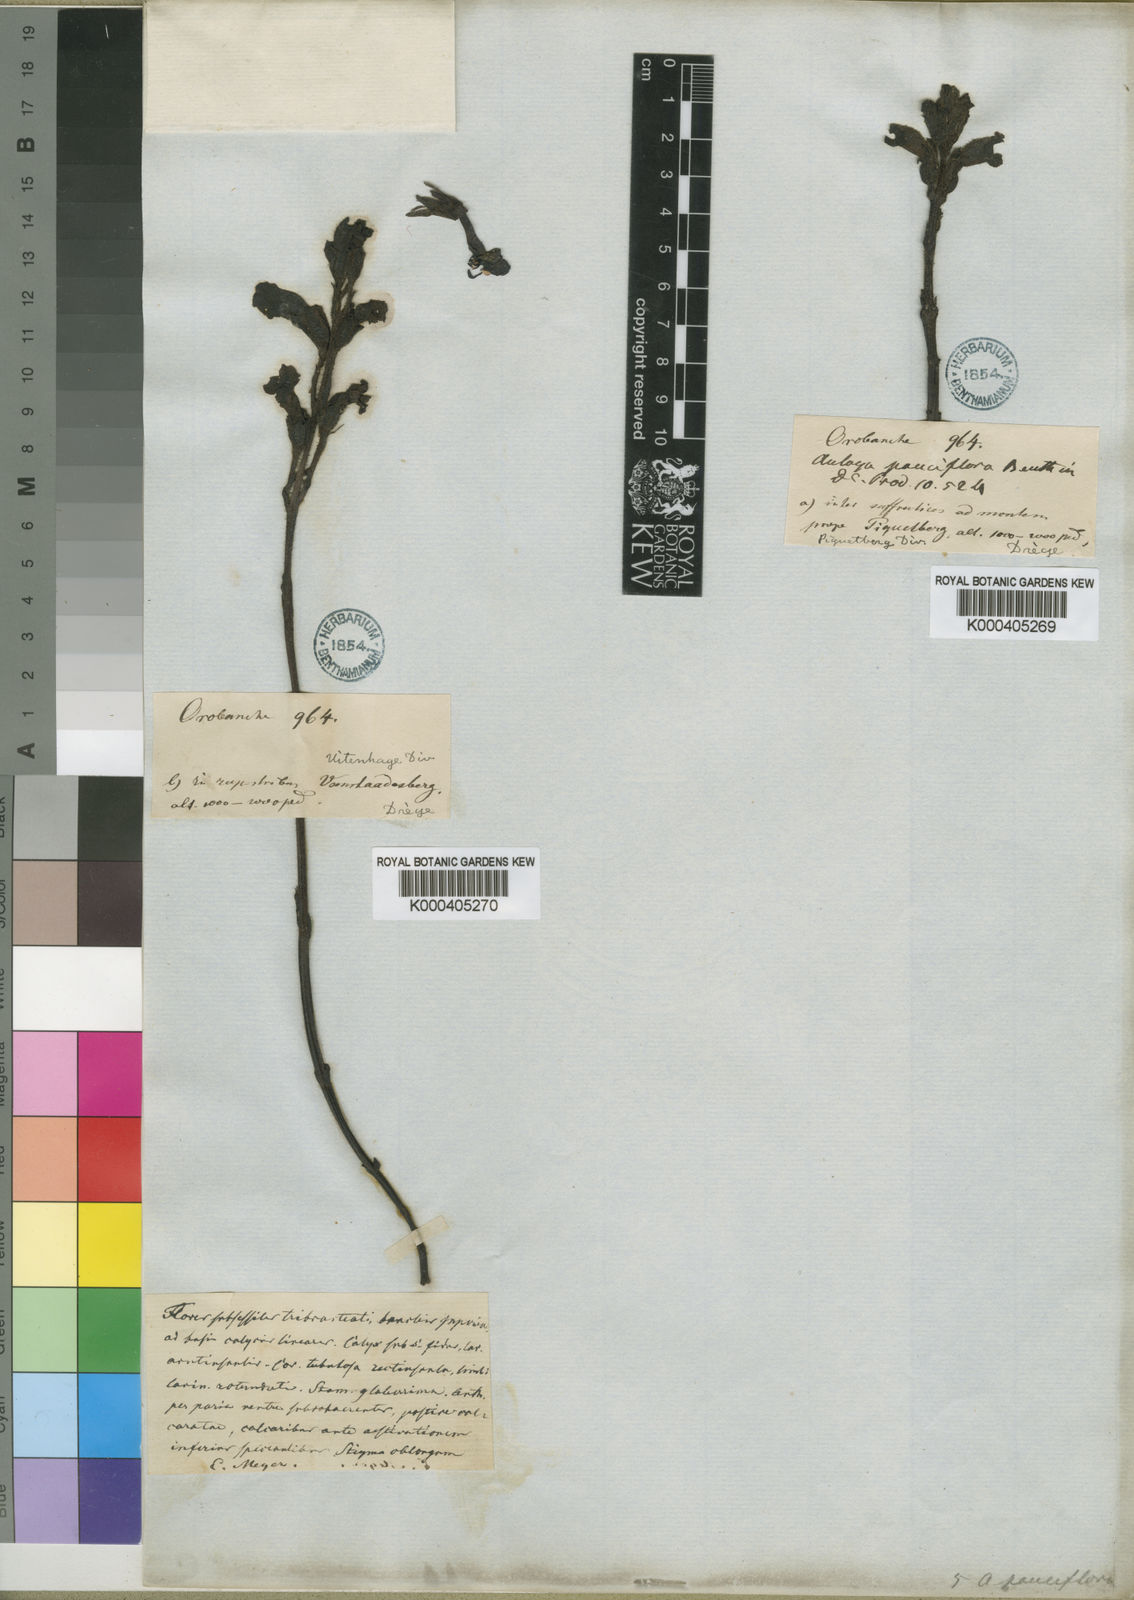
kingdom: Plantae
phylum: Tracheophyta
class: Magnoliopsida
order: Lamiales
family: Orobanchaceae
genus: Harveya
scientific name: Harveya huttonii
